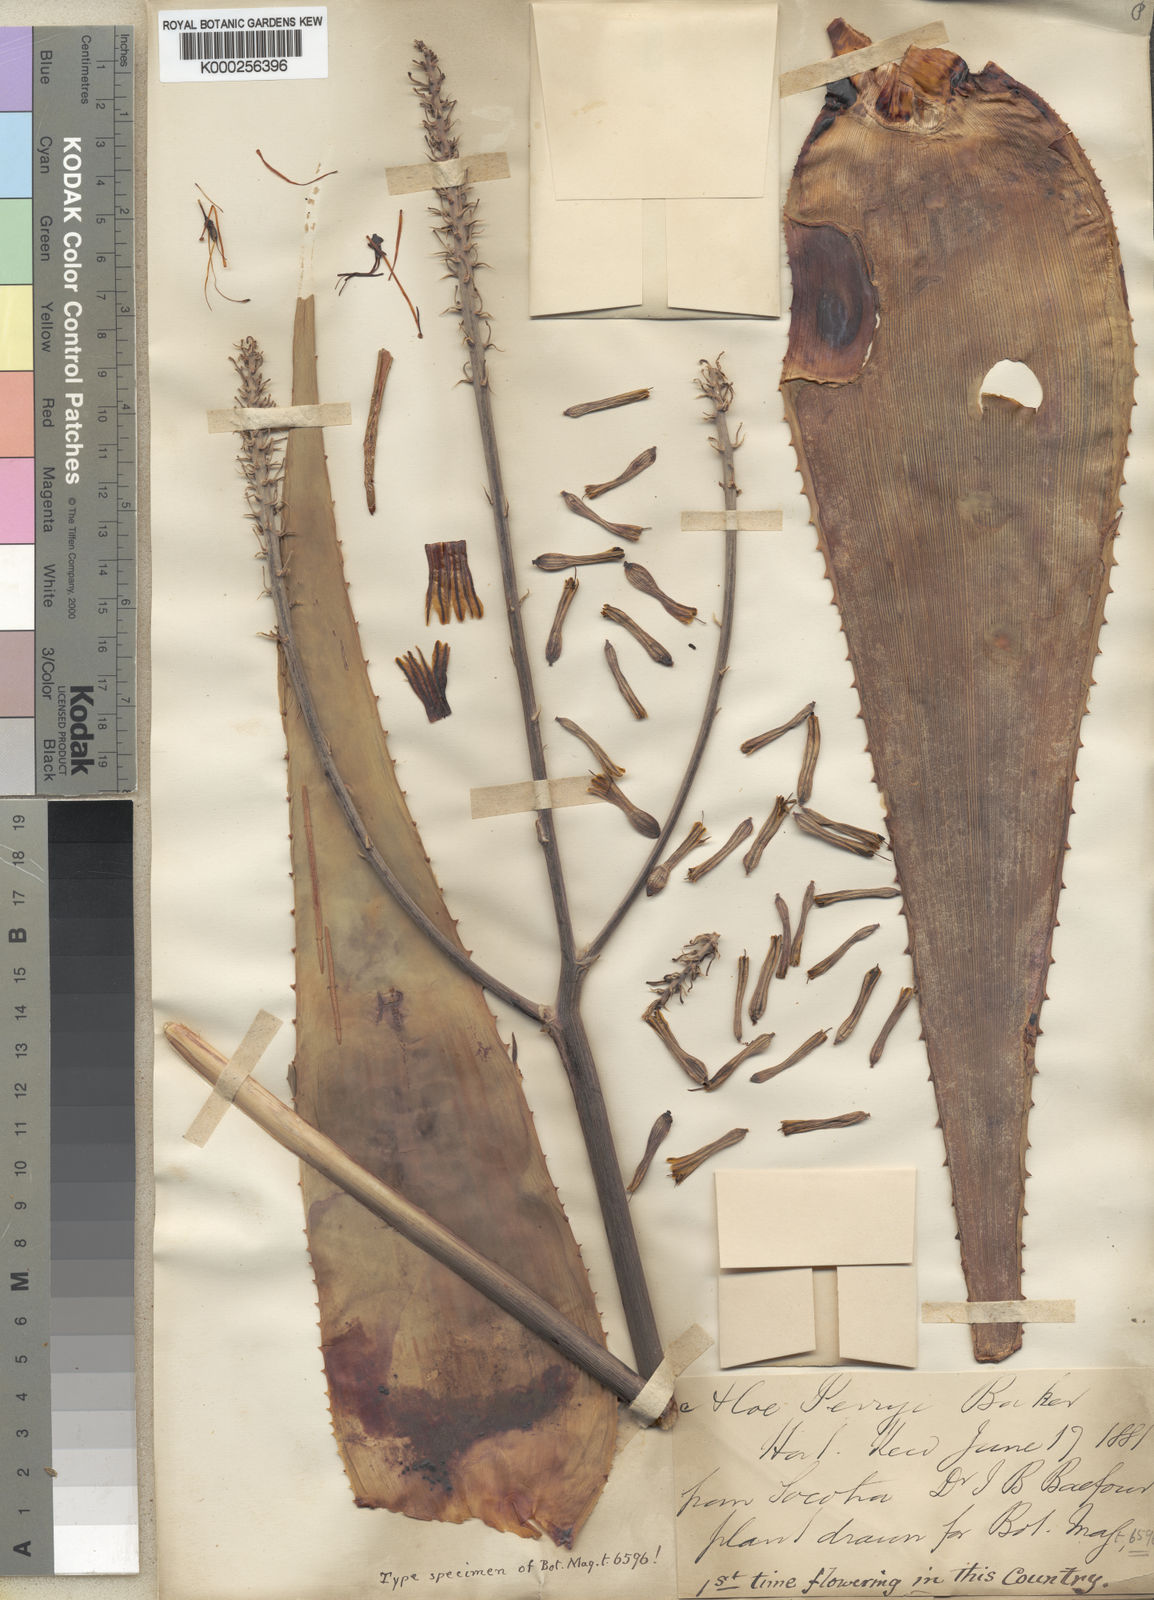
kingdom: Plantae
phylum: Tracheophyta
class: Liliopsida
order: Asparagales
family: Asphodelaceae
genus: Aloe
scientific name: Aloe perryi
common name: Socotrine aloe
